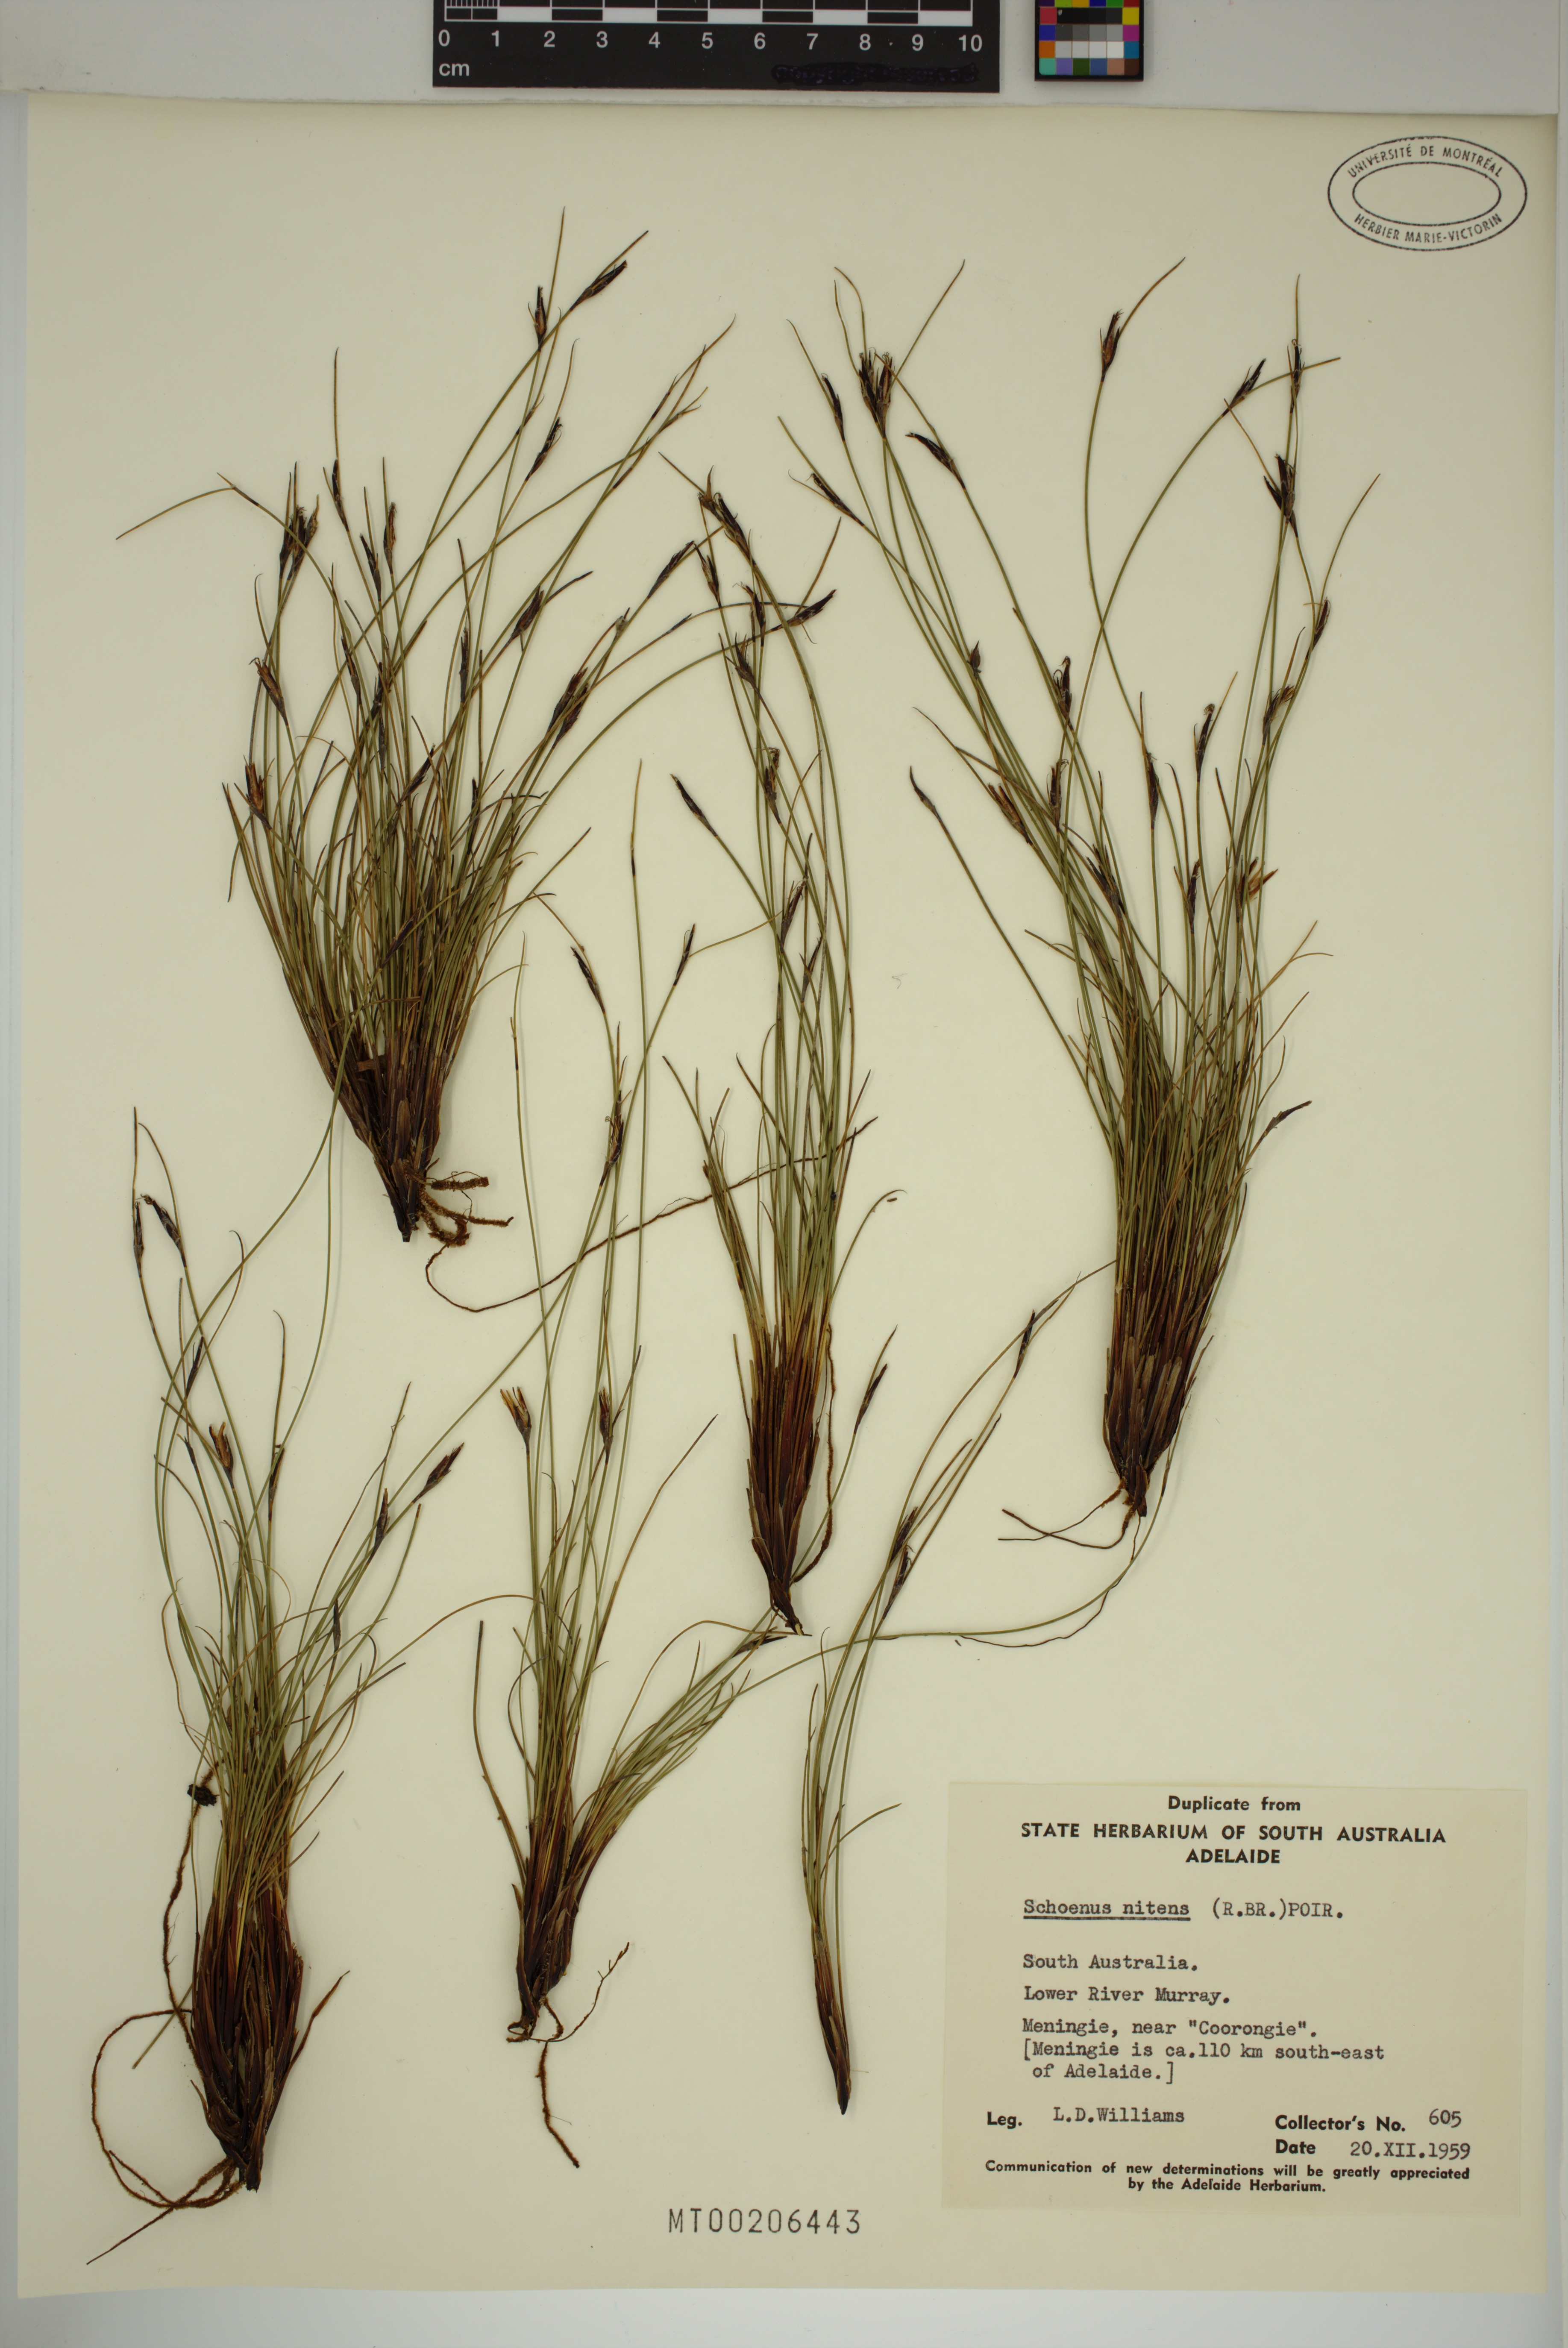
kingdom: Plantae
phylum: Tracheophyta
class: Liliopsida
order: Poales
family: Cyperaceae
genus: Schoenus
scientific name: Schoenus nitens
